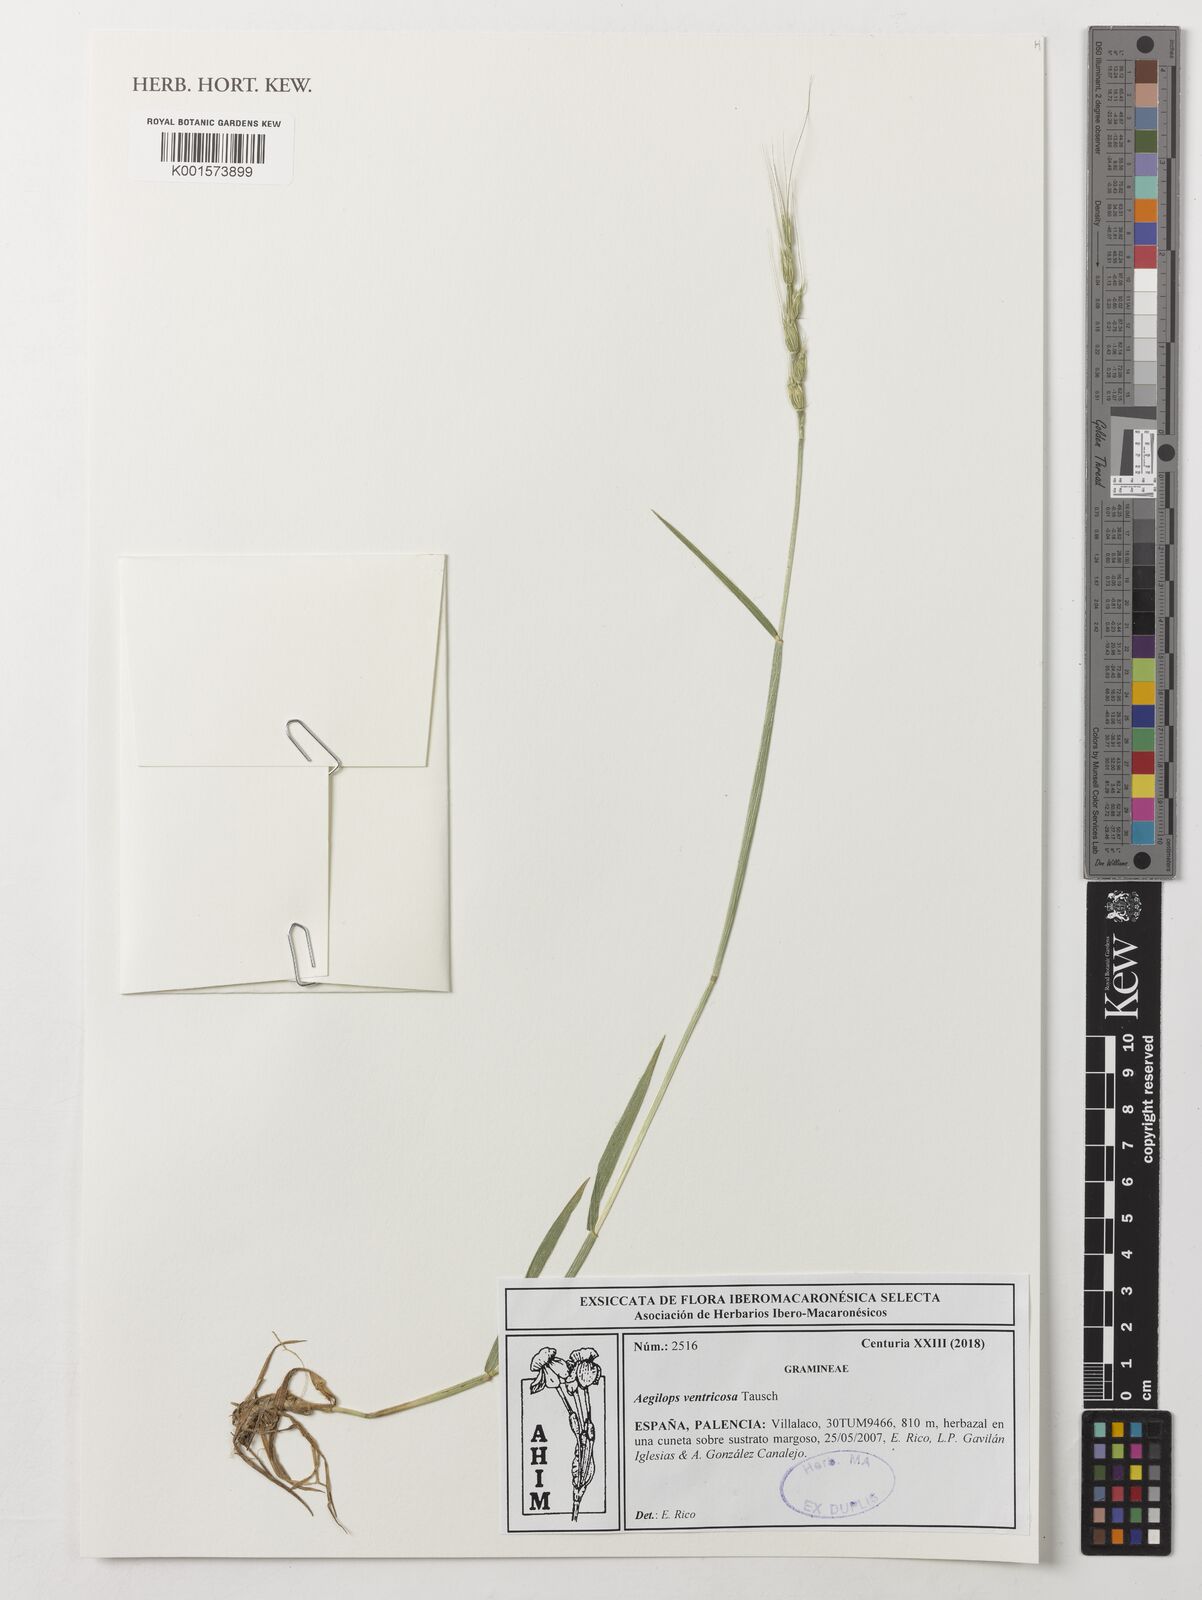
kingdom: Plantae
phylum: Tracheophyta
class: Liliopsida
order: Poales
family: Poaceae
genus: Aegilops
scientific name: Aegilops ventricosa
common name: Swollen goat grass
